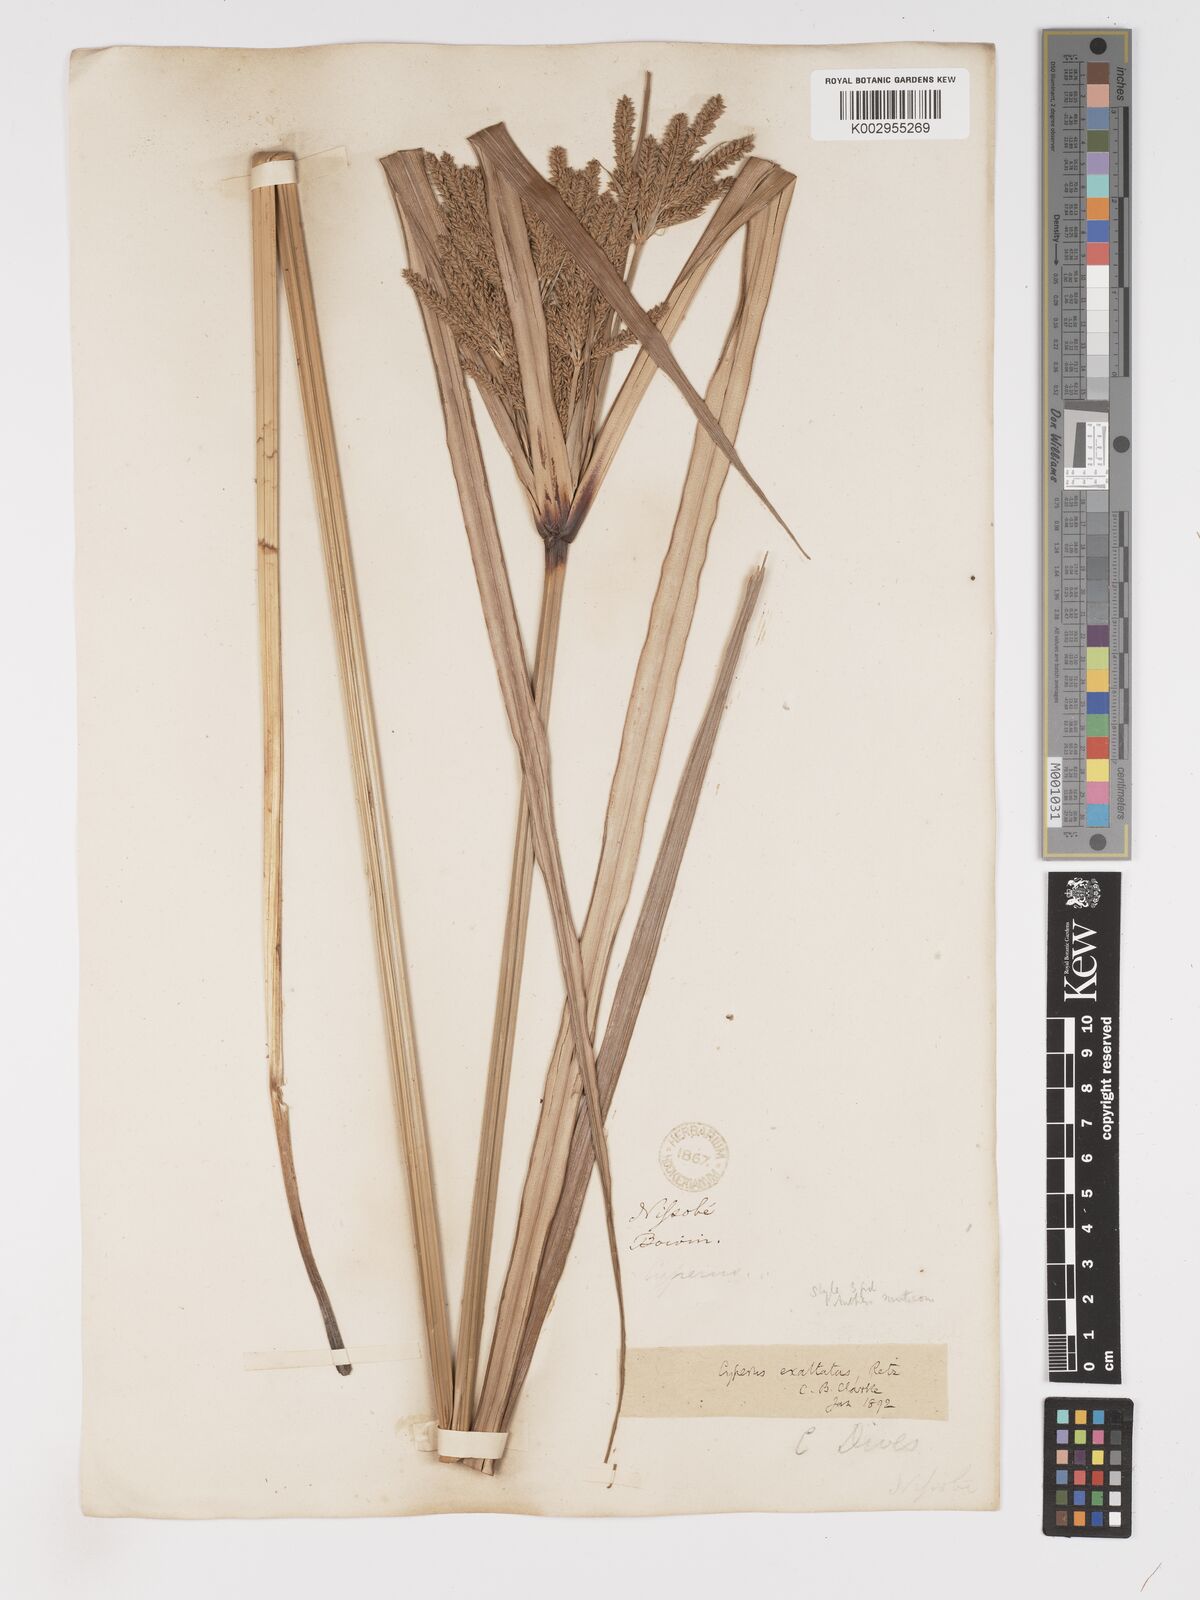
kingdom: Plantae
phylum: Tracheophyta
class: Liliopsida
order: Poales
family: Cyperaceae
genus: Cyperus
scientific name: Cyperus exaltatus
